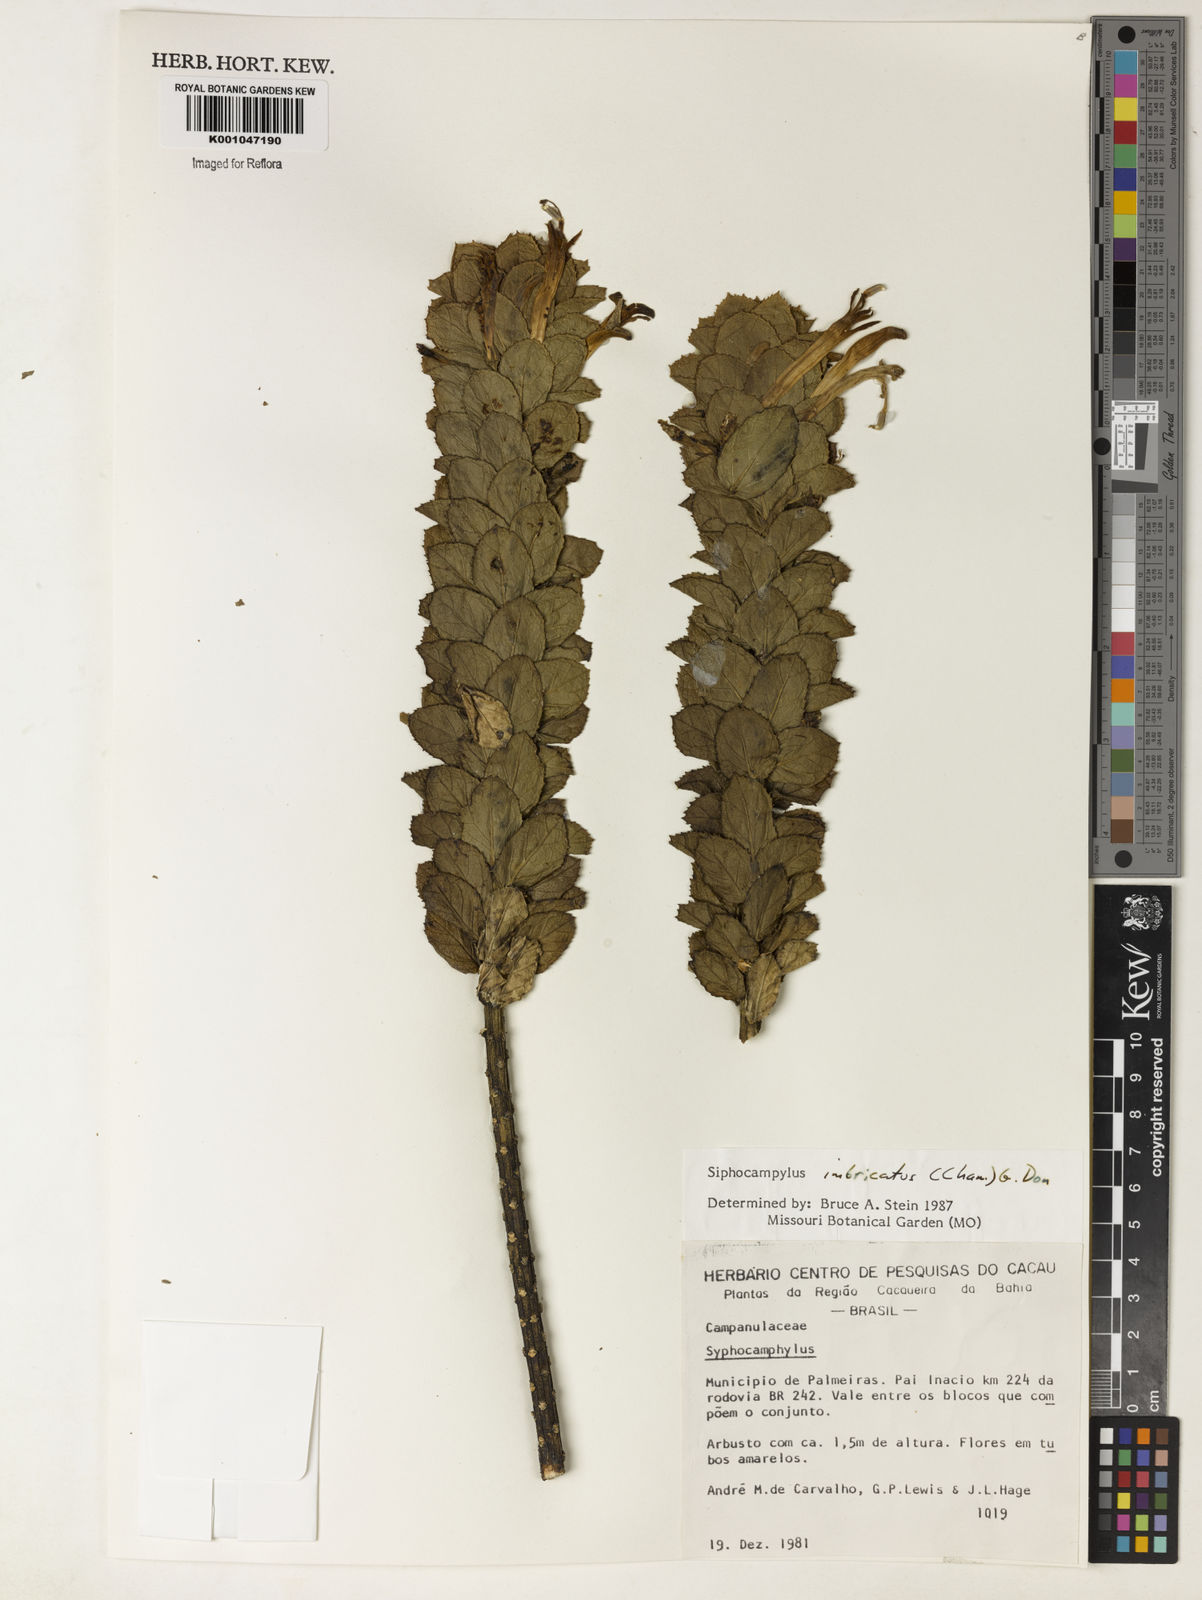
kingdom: Plantae
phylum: Tracheophyta
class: Magnoliopsida
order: Asterales
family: Campanulaceae
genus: Siphocampylus
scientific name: Siphocampylus imbricatus
